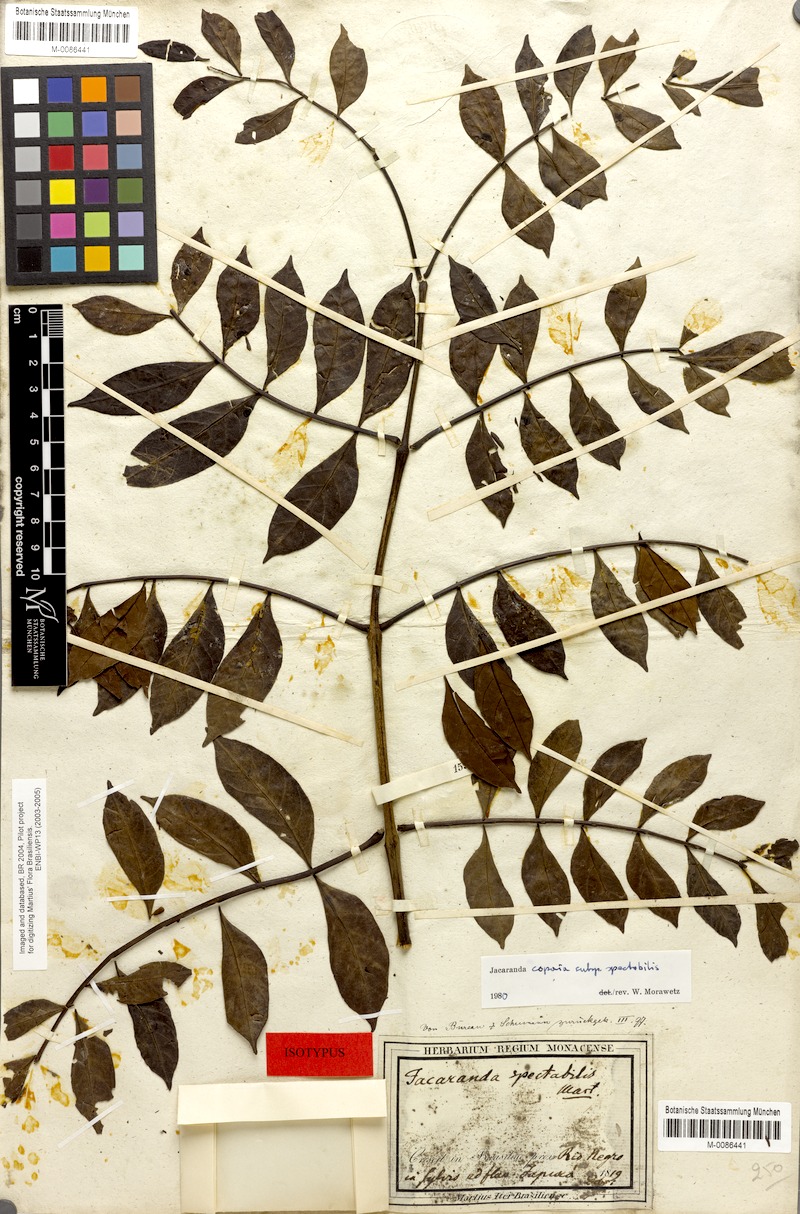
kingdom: Plantae
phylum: Tracheophyta
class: Magnoliopsida
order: Lamiales
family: Bignoniaceae
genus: Jacaranda
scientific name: Jacaranda copaia
